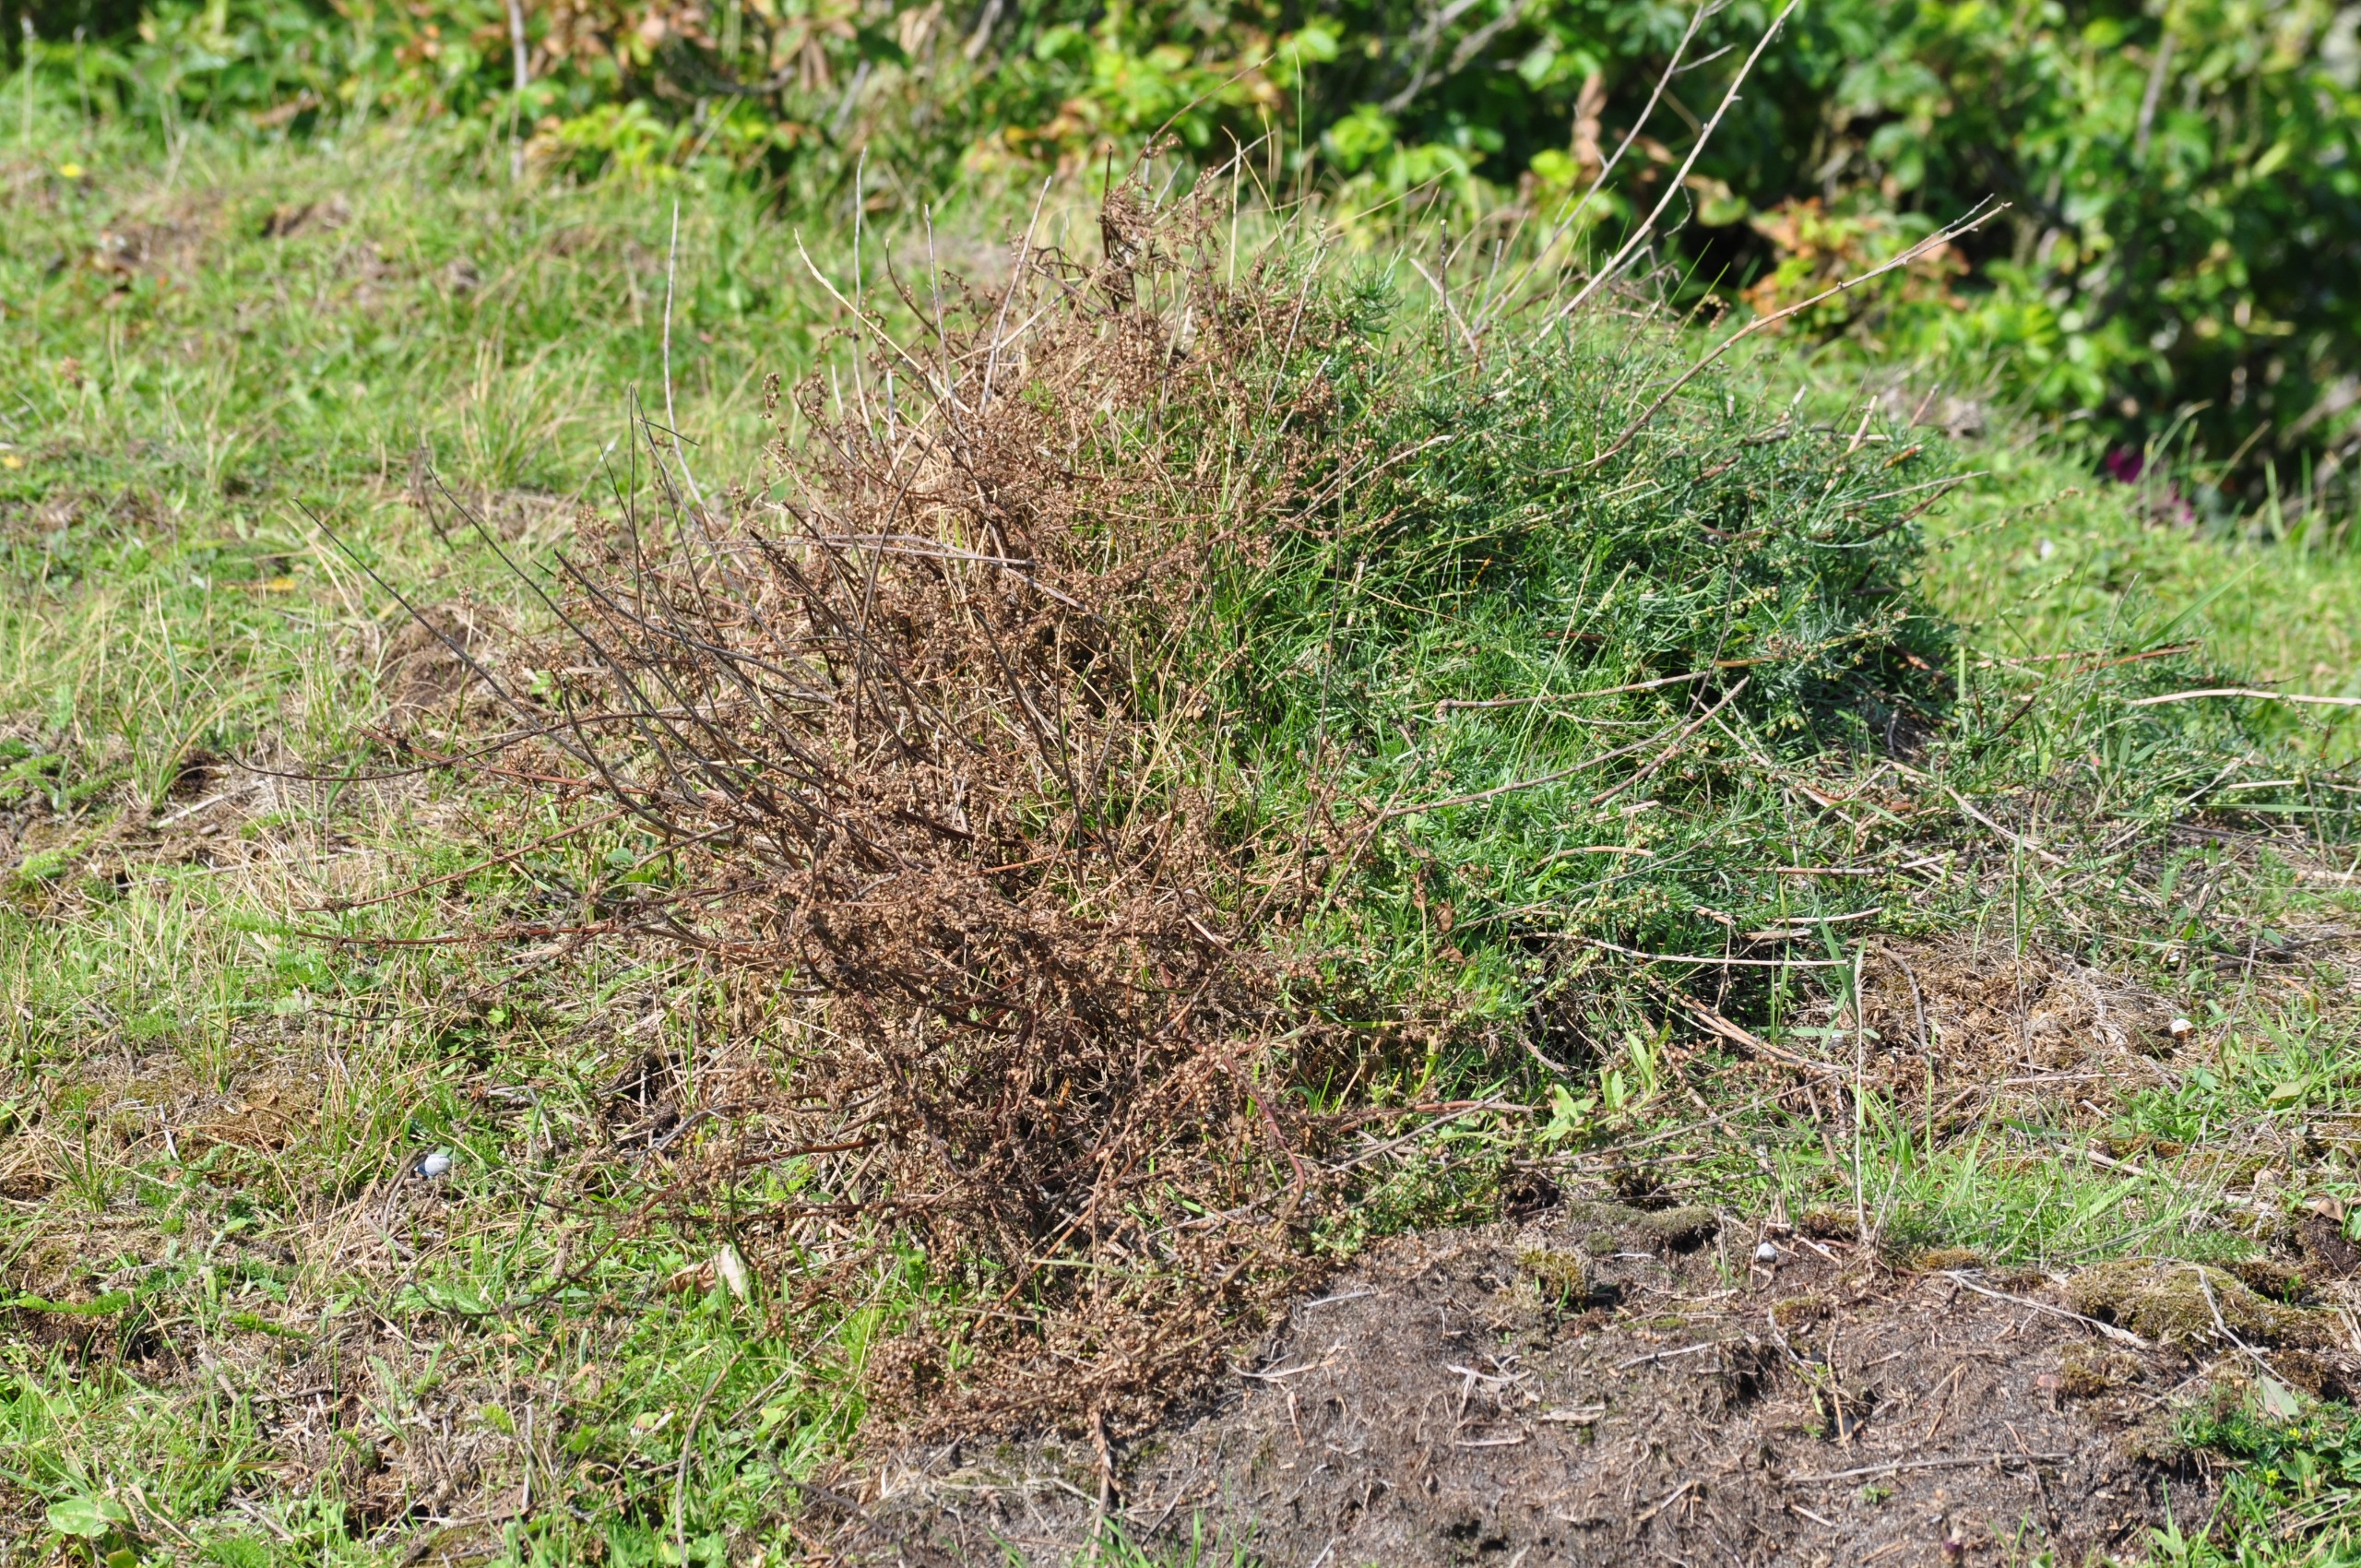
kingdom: Plantae
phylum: Tracheophyta
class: Magnoliopsida
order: Asterales
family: Asteraceae
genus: Artemisia
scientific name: Artemisia campestris
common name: Mark-bynke
